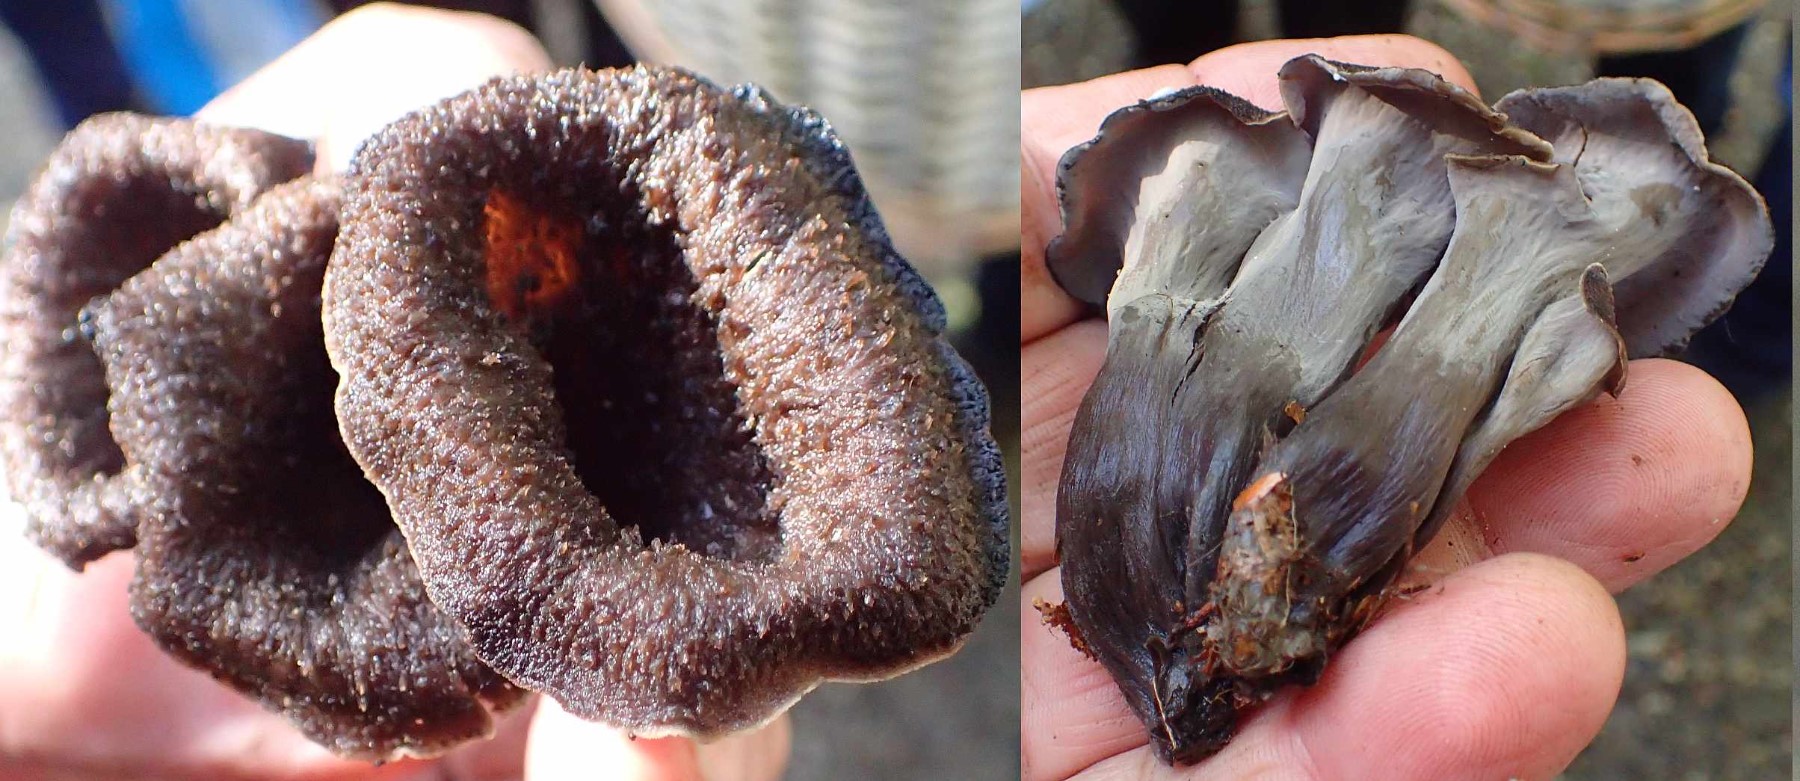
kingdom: Fungi
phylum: Basidiomycota
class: Agaricomycetes
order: Cantharellales
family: Hydnaceae
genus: Craterellus
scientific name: Craterellus cornucopioides
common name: trompetsvamp
